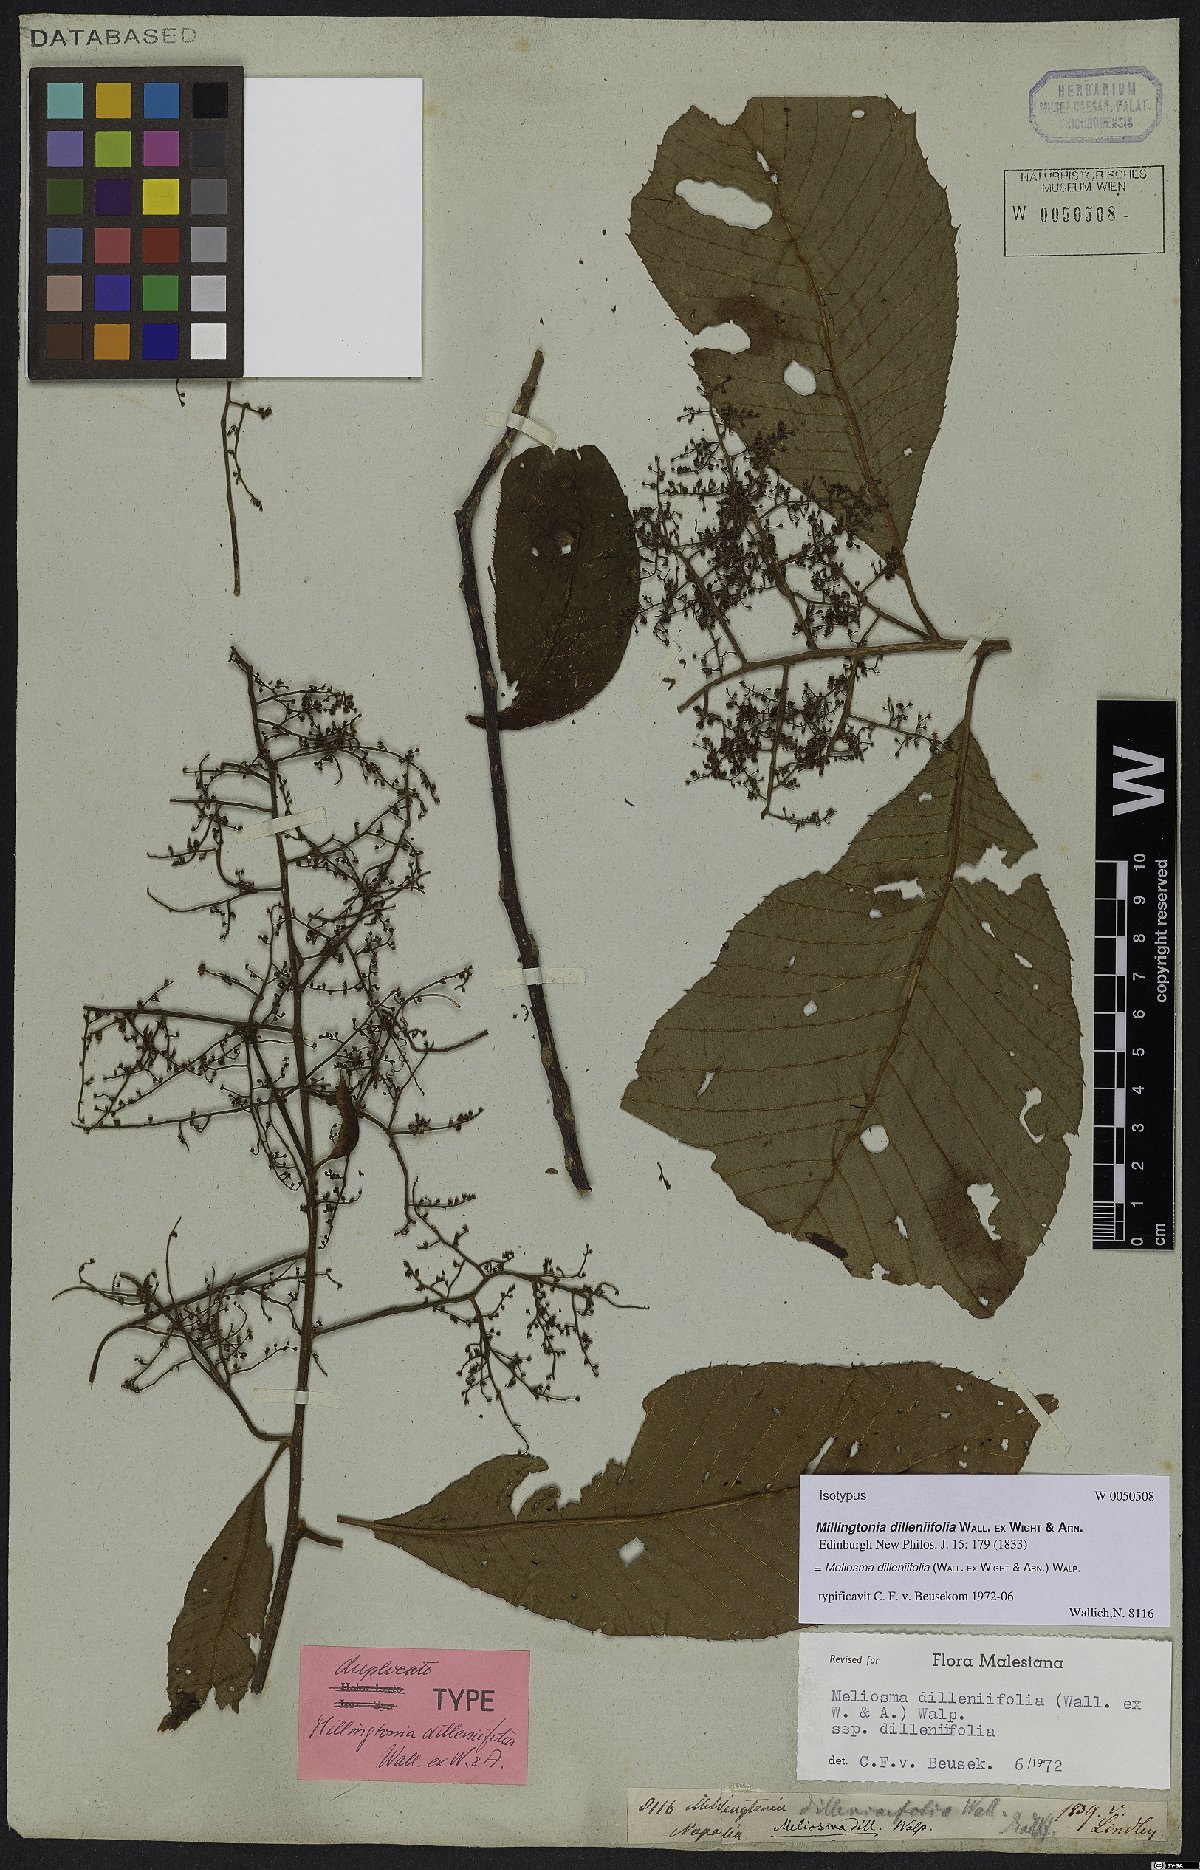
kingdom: Plantae
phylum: Tracheophyta
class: Magnoliopsida
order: Proteales
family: Sabiaceae
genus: Meliosma
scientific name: Meliosma dilleniifolia
